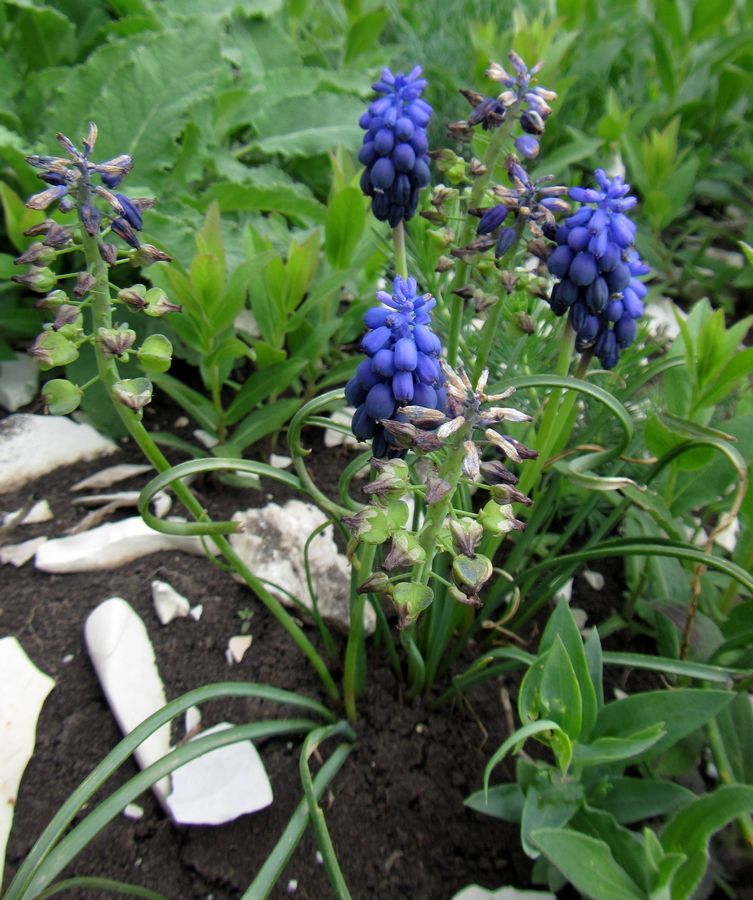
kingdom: Plantae
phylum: Tracheophyta
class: Liliopsida
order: Asparagales
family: Asparagaceae
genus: Muscari
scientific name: Muscari neglectum
